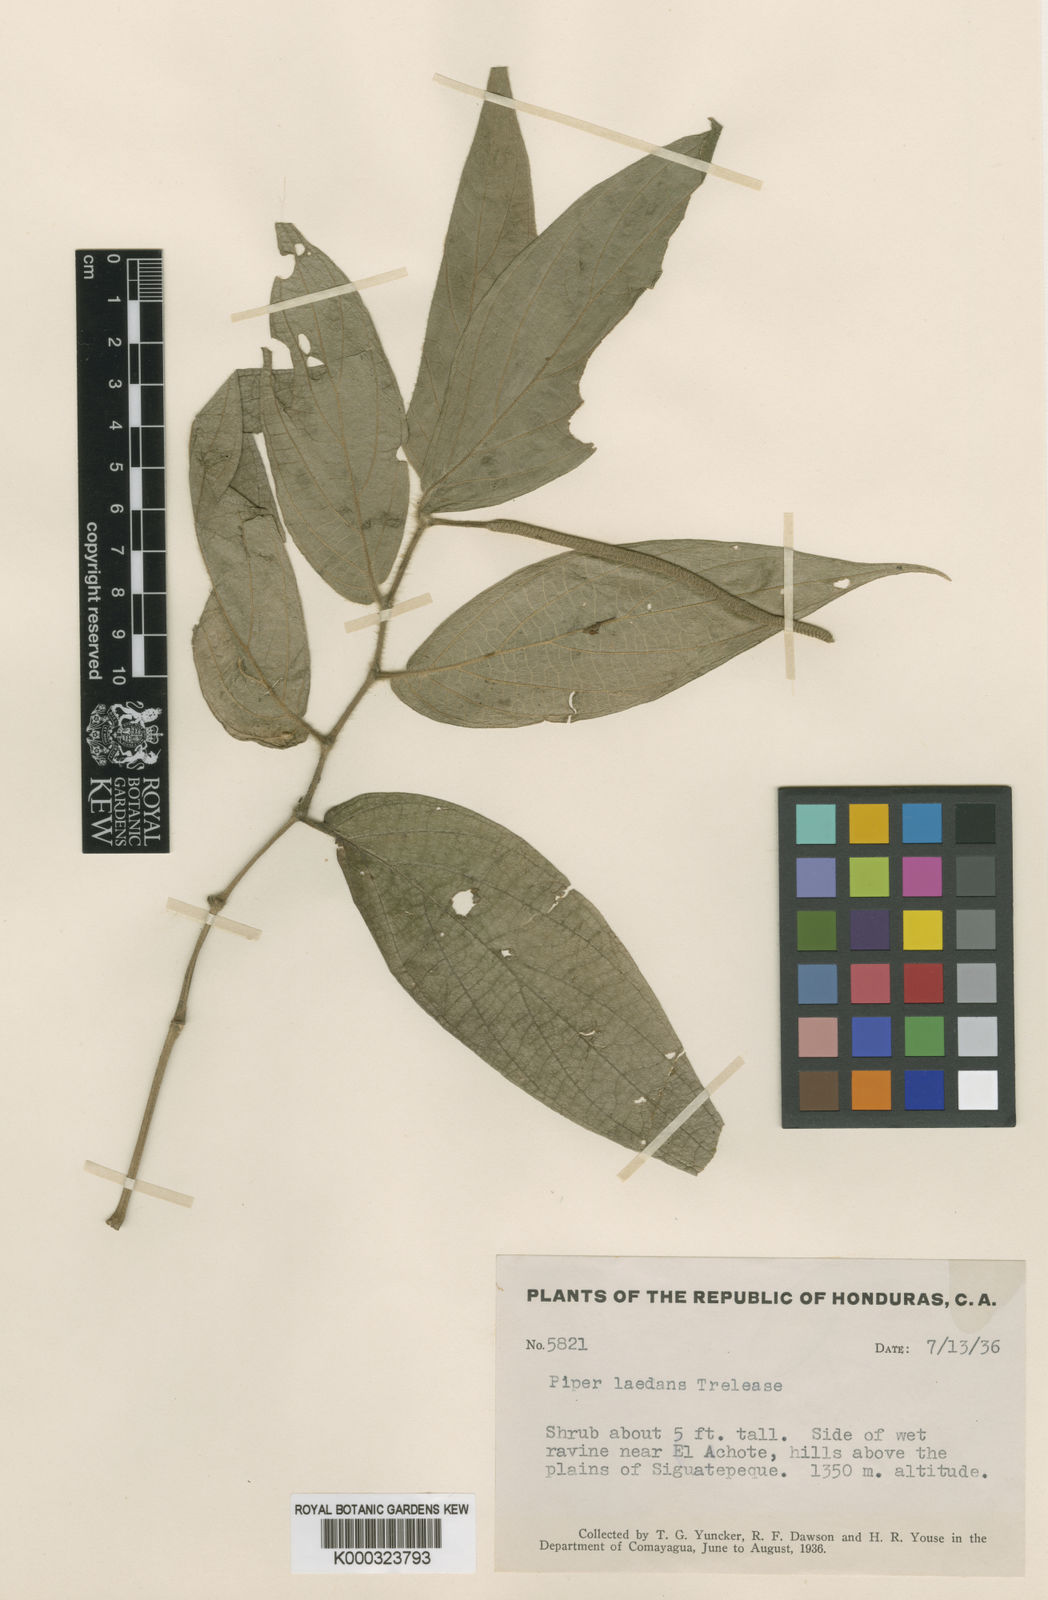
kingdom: Plantae
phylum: Tracheophyta
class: Magnoliopsida
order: Piperales
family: Piperaceae
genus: Piper
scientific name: Piper villiramulum
